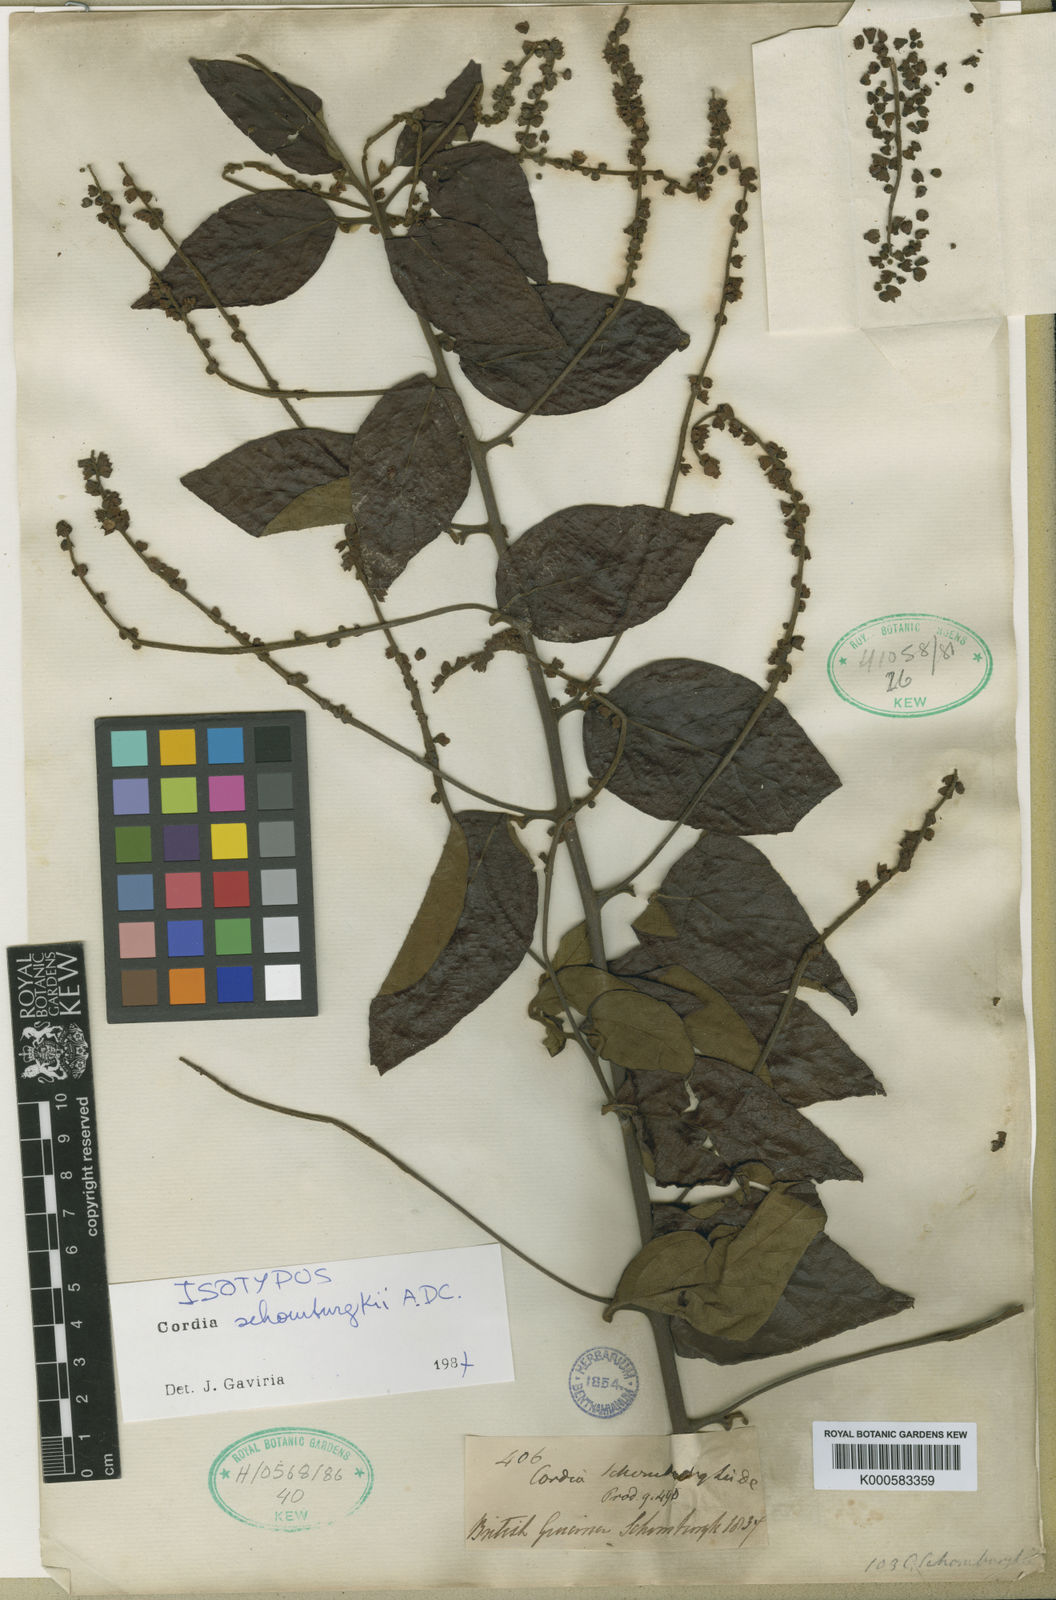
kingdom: Plantae
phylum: Tracheophyta
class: Magnoliopsida
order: Boraginales
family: Cordiaceae
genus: Varronia
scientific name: Varronia schomburgkii
